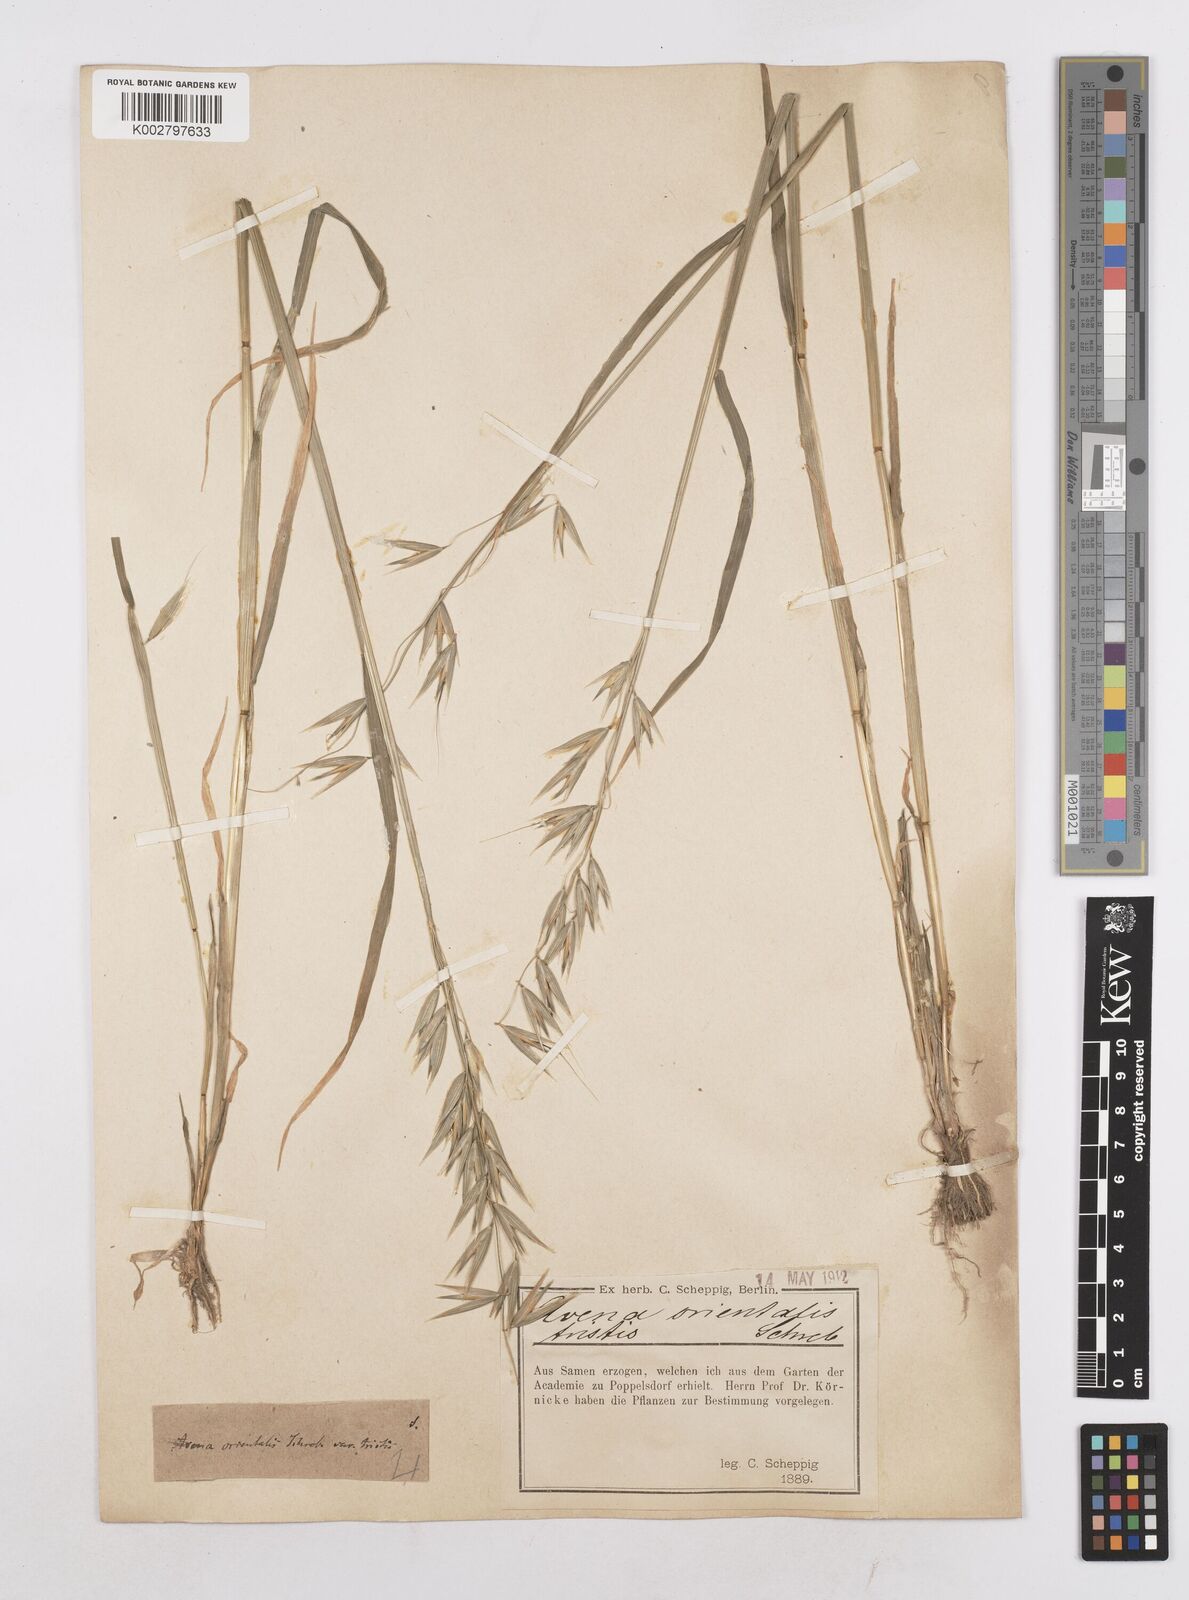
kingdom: Plantae
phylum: Tracheophyta
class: Liliopsida
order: Poales
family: Poaceae
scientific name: Poaceae
